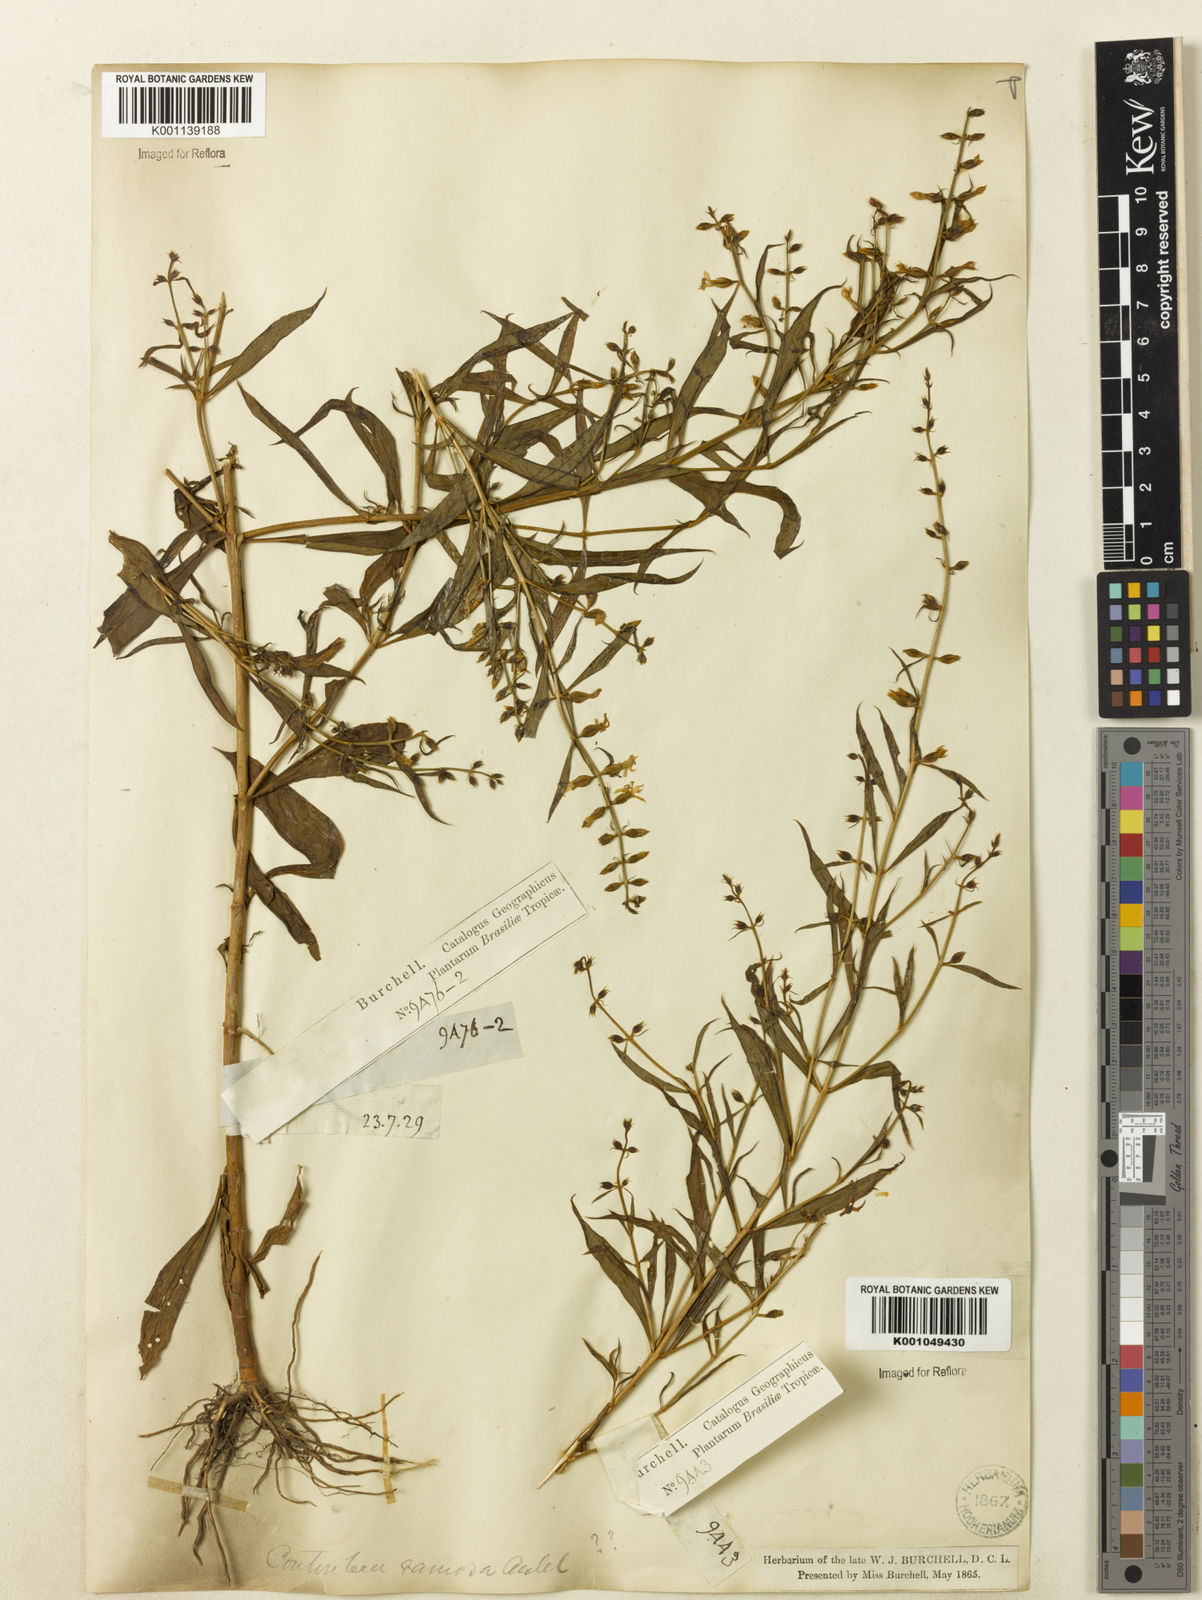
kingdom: Plantae
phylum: Tracheophyta
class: Magnoliopsida
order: Gentianales
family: Gentianaceae
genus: Coutoubea
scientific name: Coutoubea ramosa
